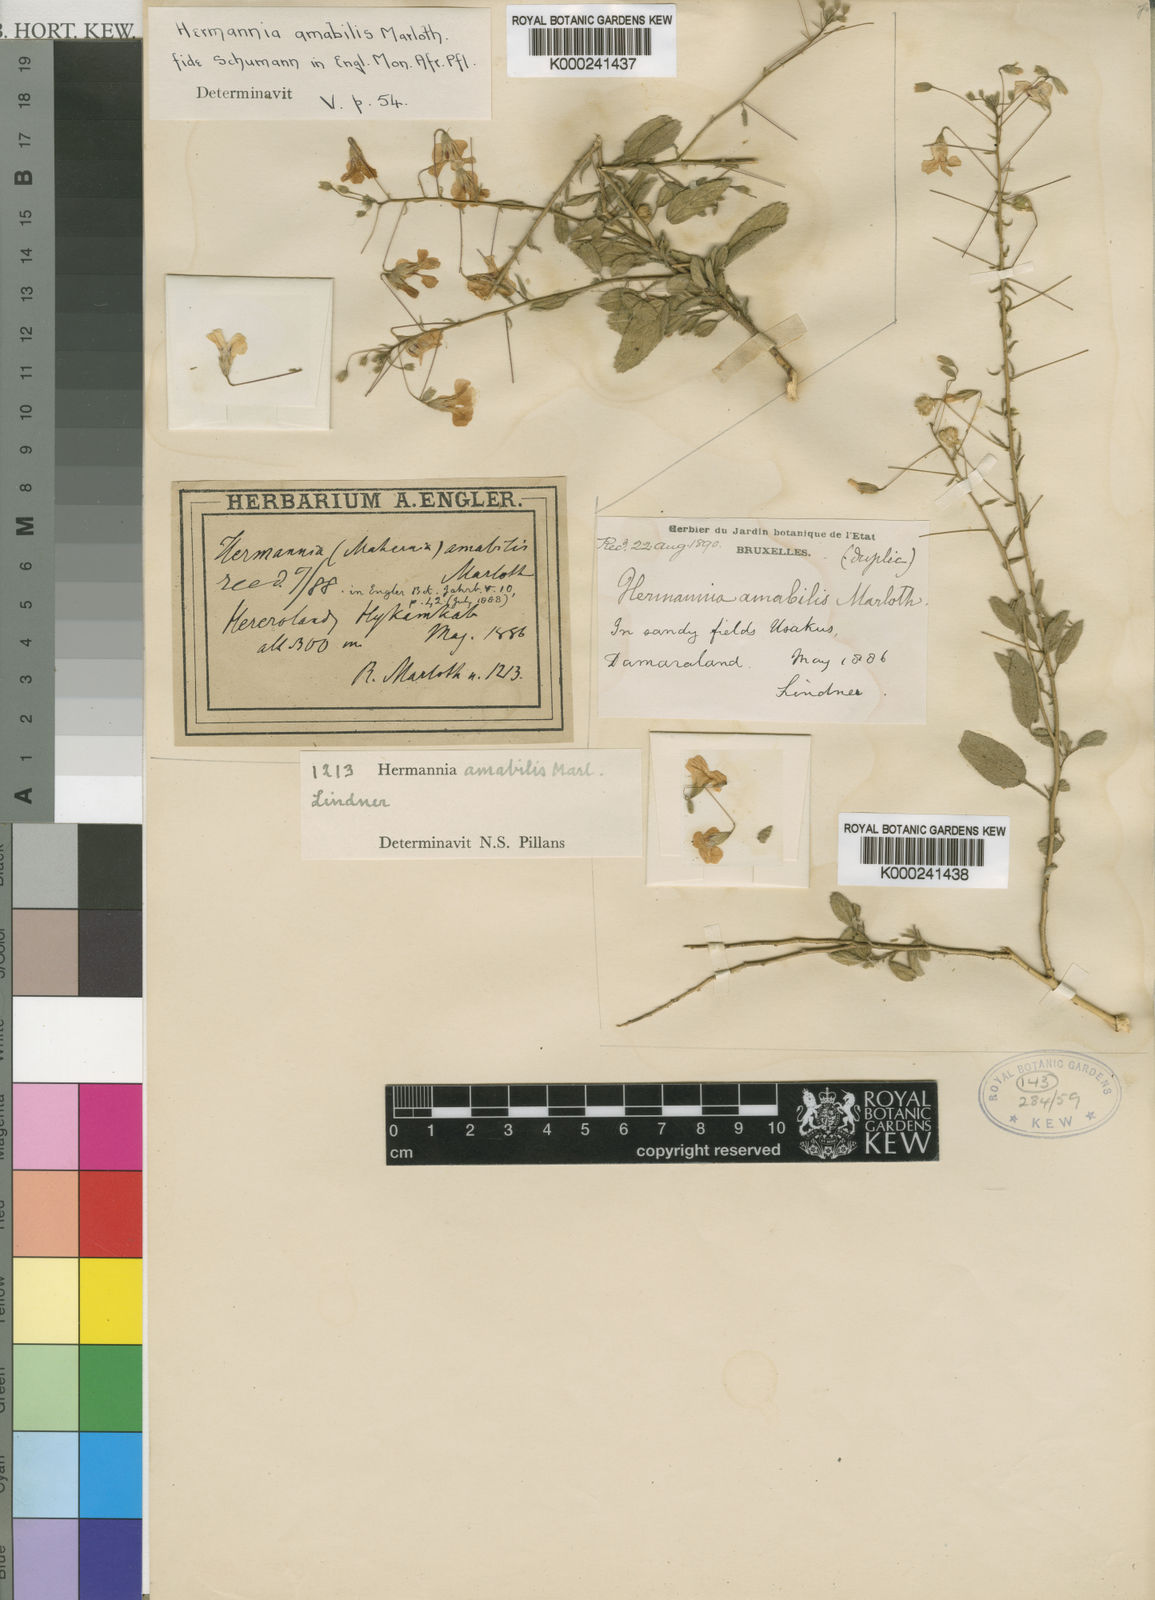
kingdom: Plantae
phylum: Tracheophyta
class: Magnoliopsida
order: Malvales
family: Malvaceae
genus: Hermannia
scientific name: Hermannia amabilis
